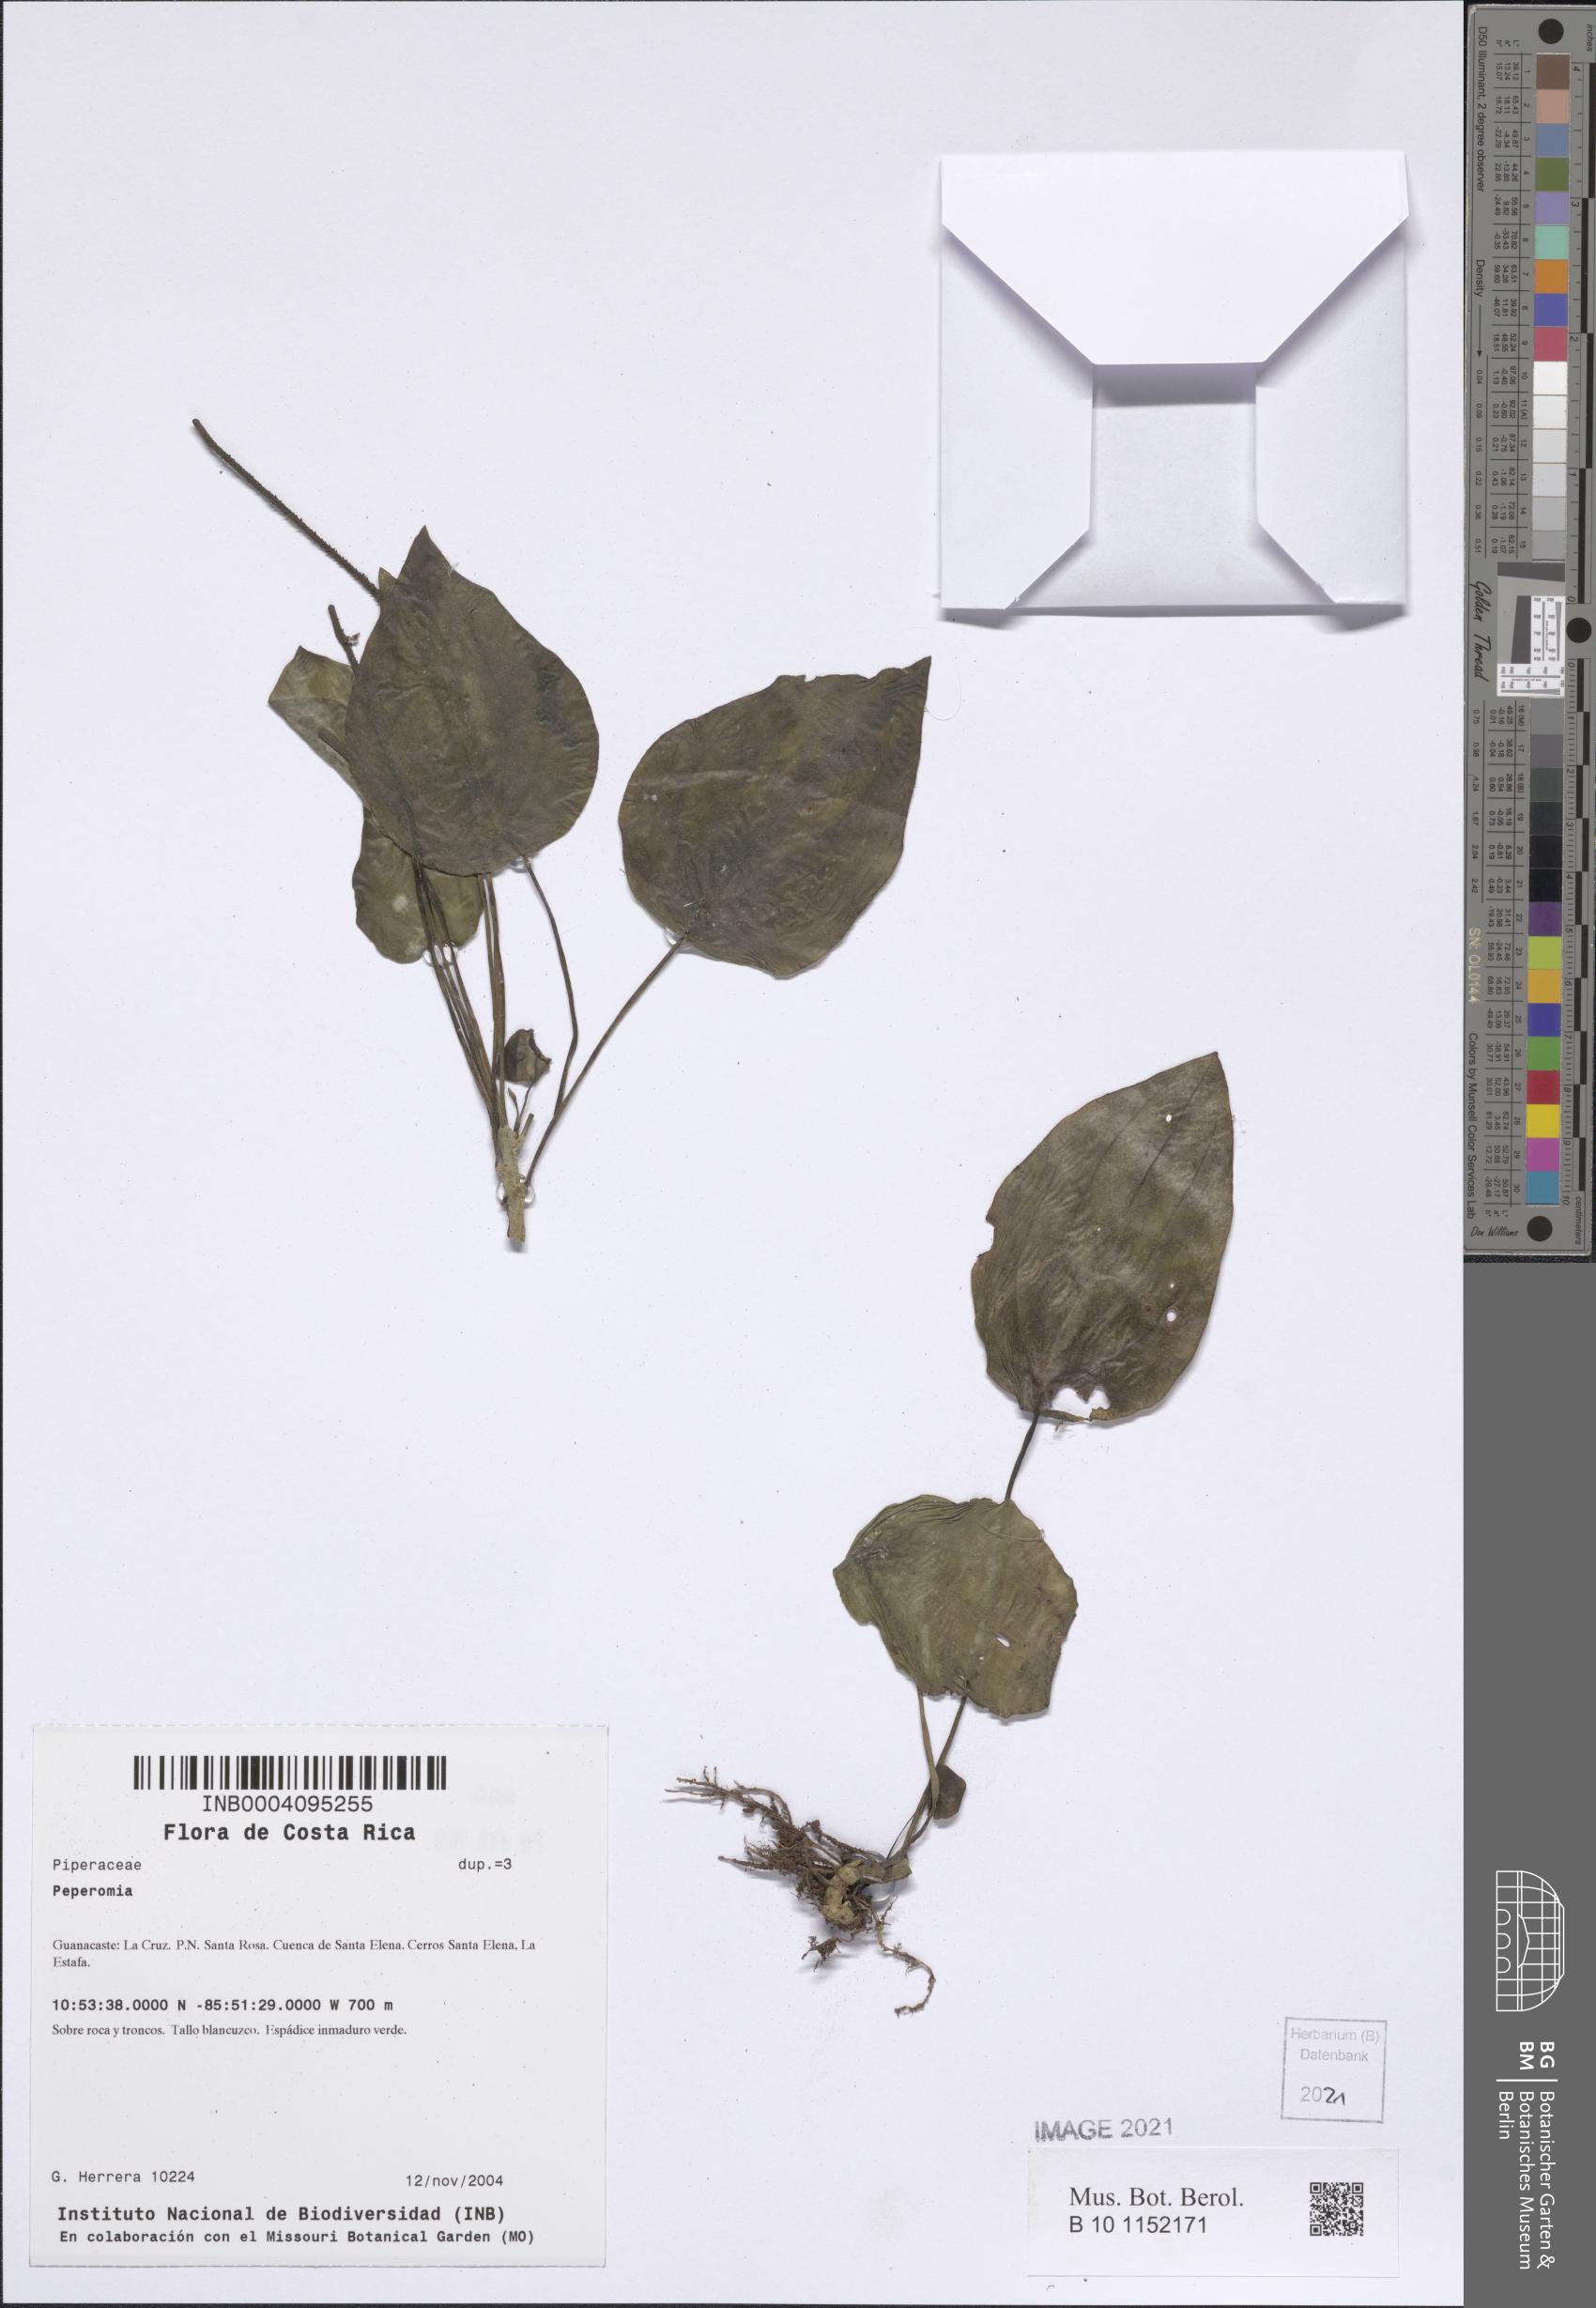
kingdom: Plantae
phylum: Tracheophyta
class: Magnoliopsida
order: Piperales
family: Piperaceae
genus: Peperomia
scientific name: Peperomia
